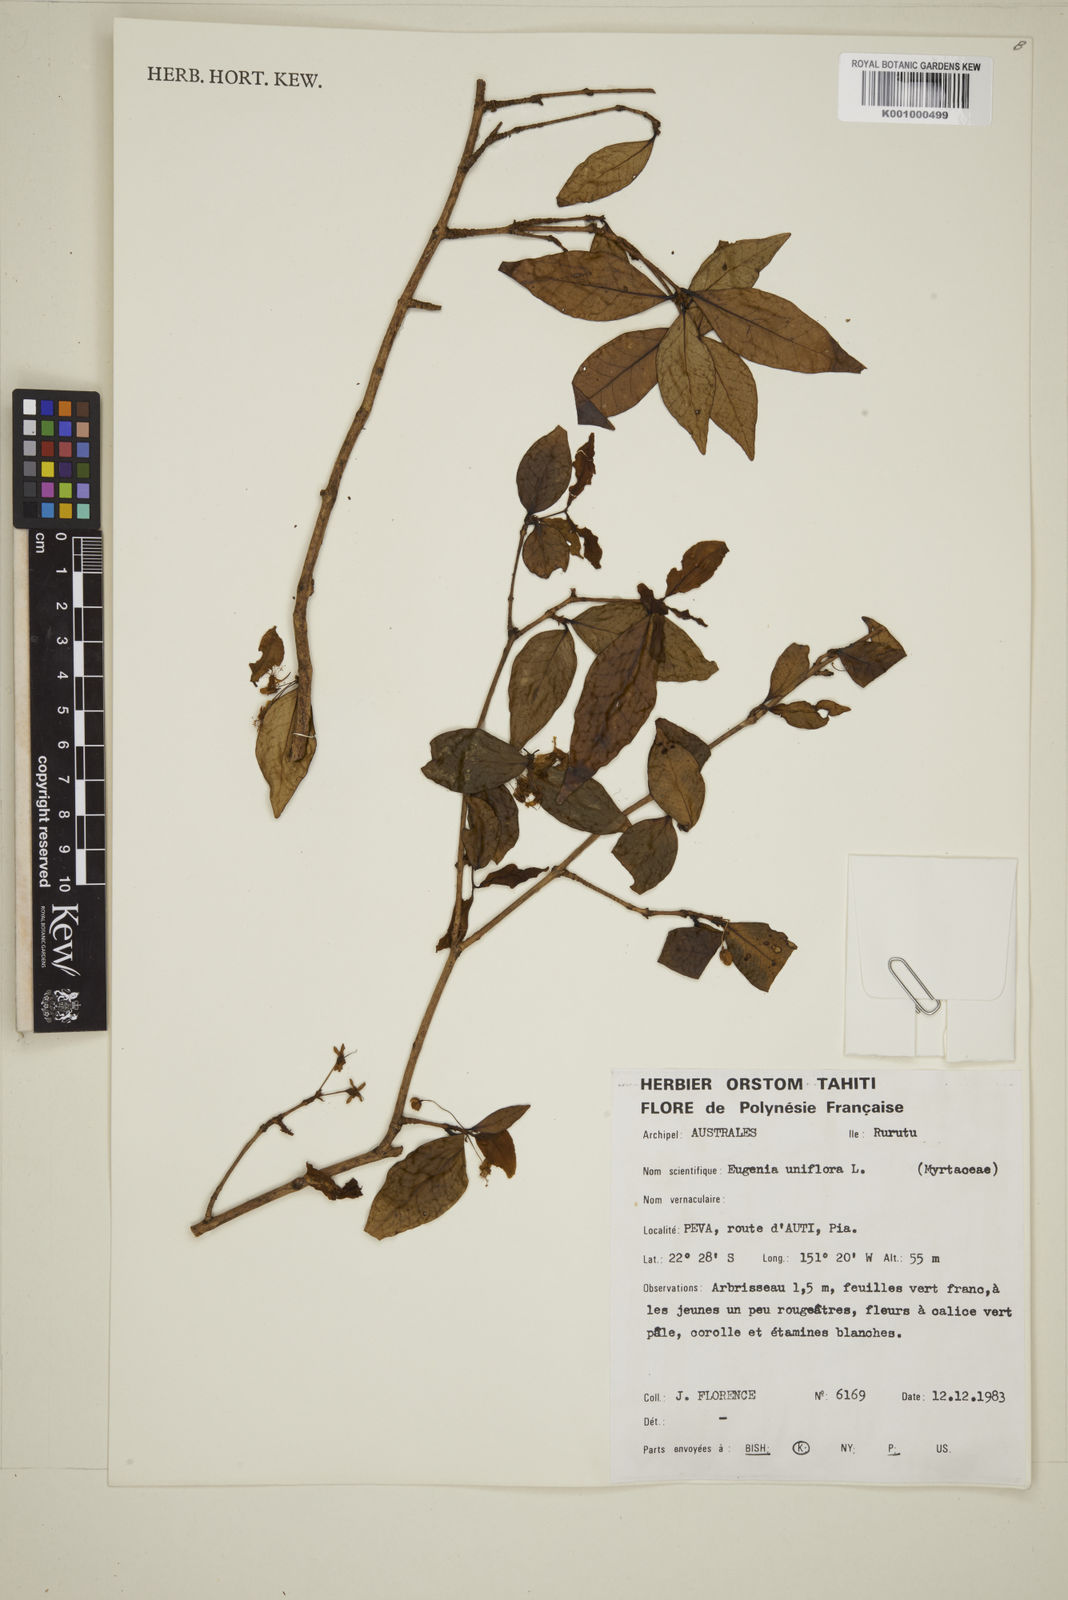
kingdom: Plantae
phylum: Tracheophyta
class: Magnoliopsida
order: Myrtales
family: Myrtaceae
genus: Eugenia
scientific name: Eugenia uniflora
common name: Surinam cherry
